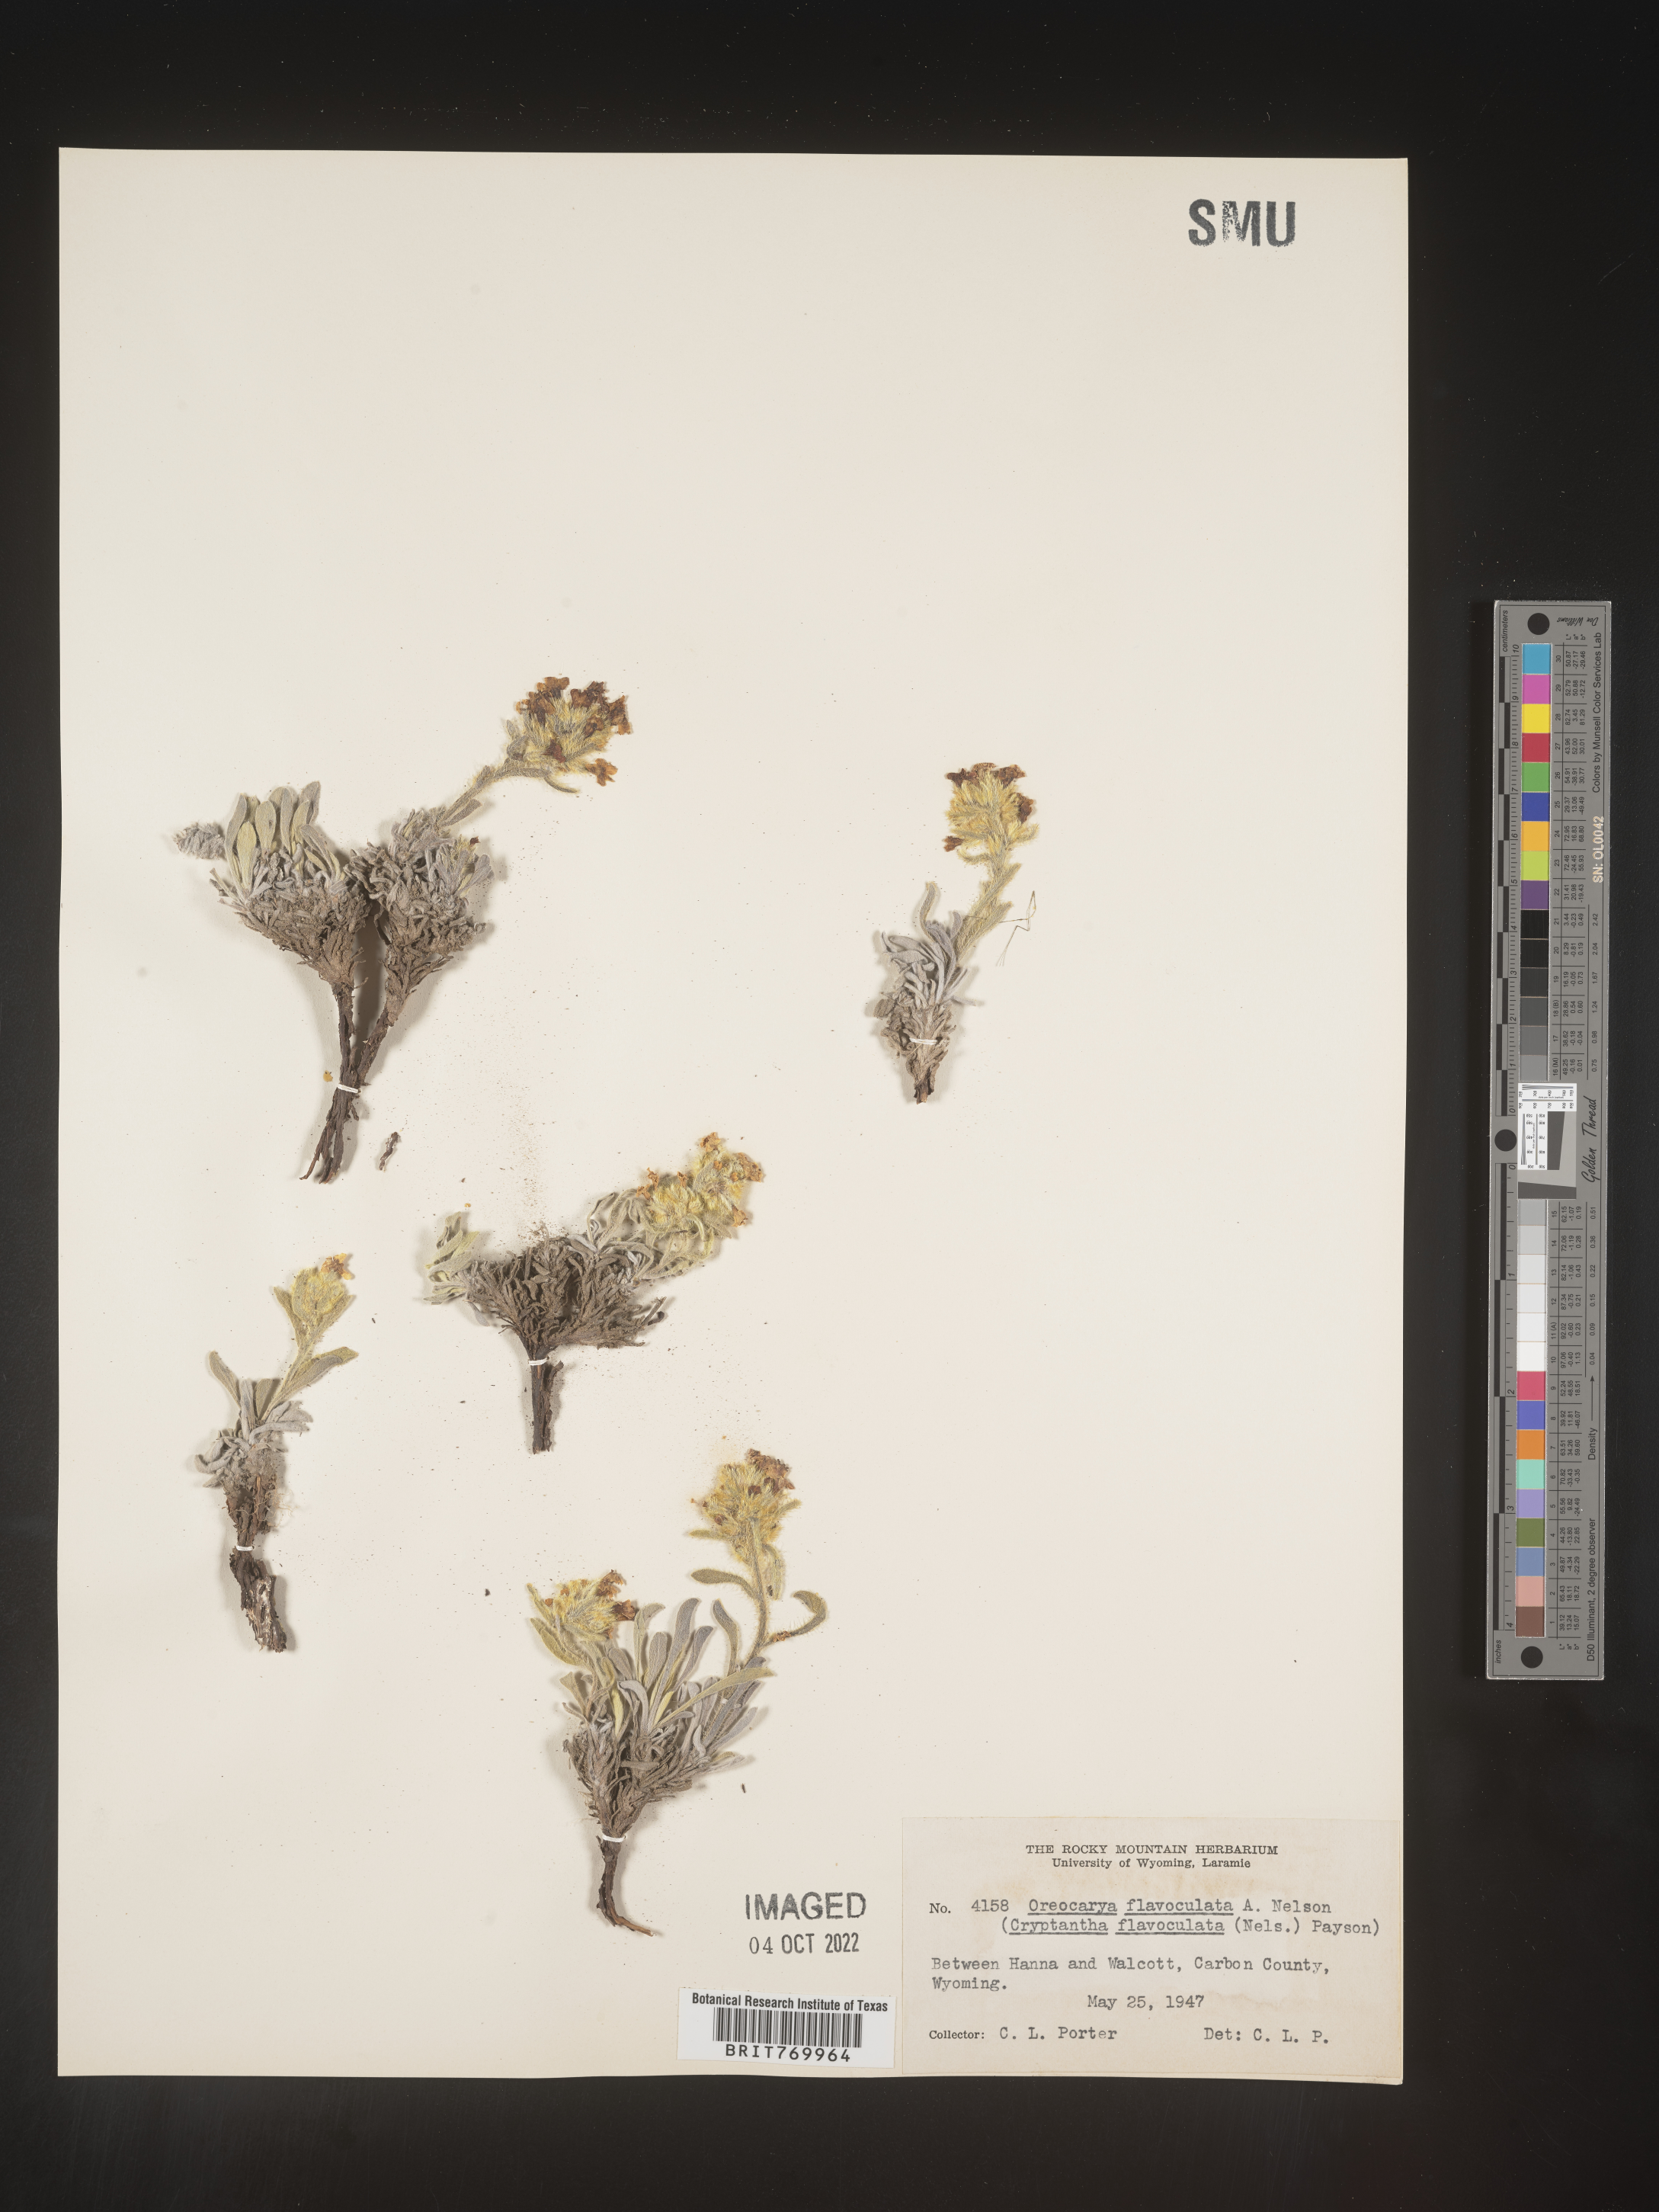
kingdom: Plantae
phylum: Tracheophyta
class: Magnoliopsida
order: Boraginales
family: Boraginaceae
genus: Oreocarya
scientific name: Oreocarya
